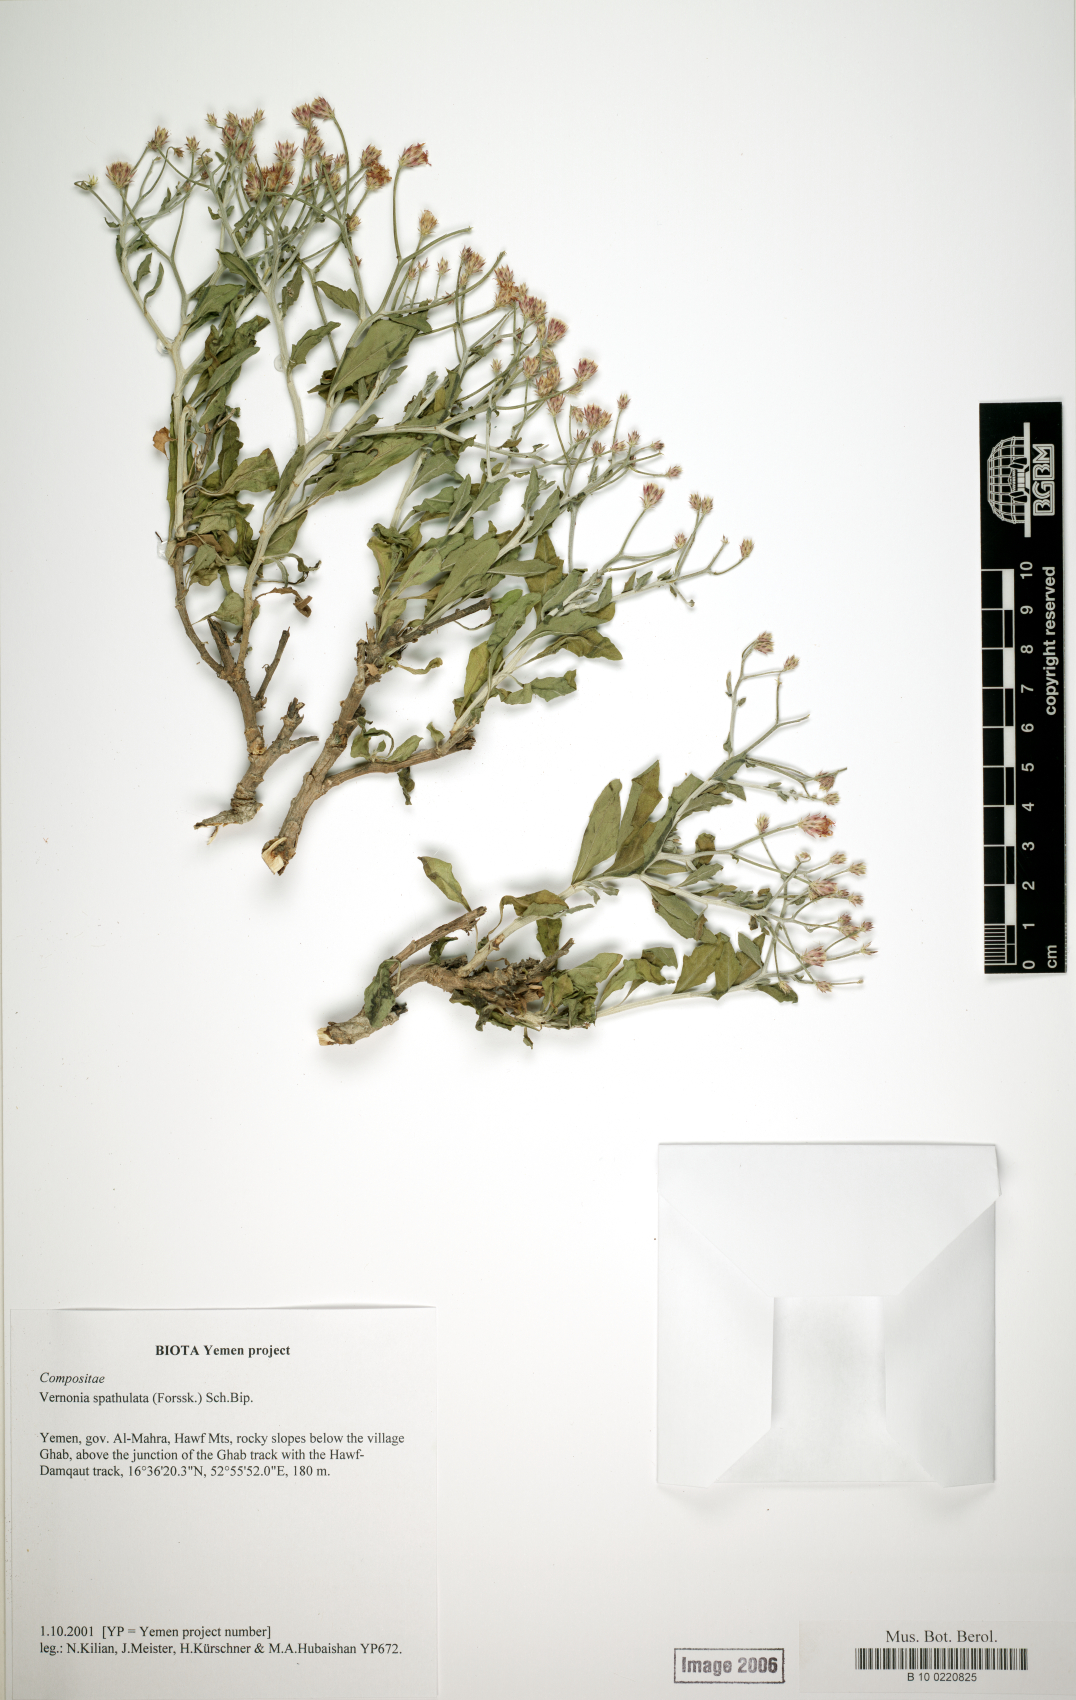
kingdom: Plantae
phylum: Tracheophyta
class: Magnoliopsida
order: Asterales
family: Asteraceae
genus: Vernonia
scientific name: Vernonia spathulata
